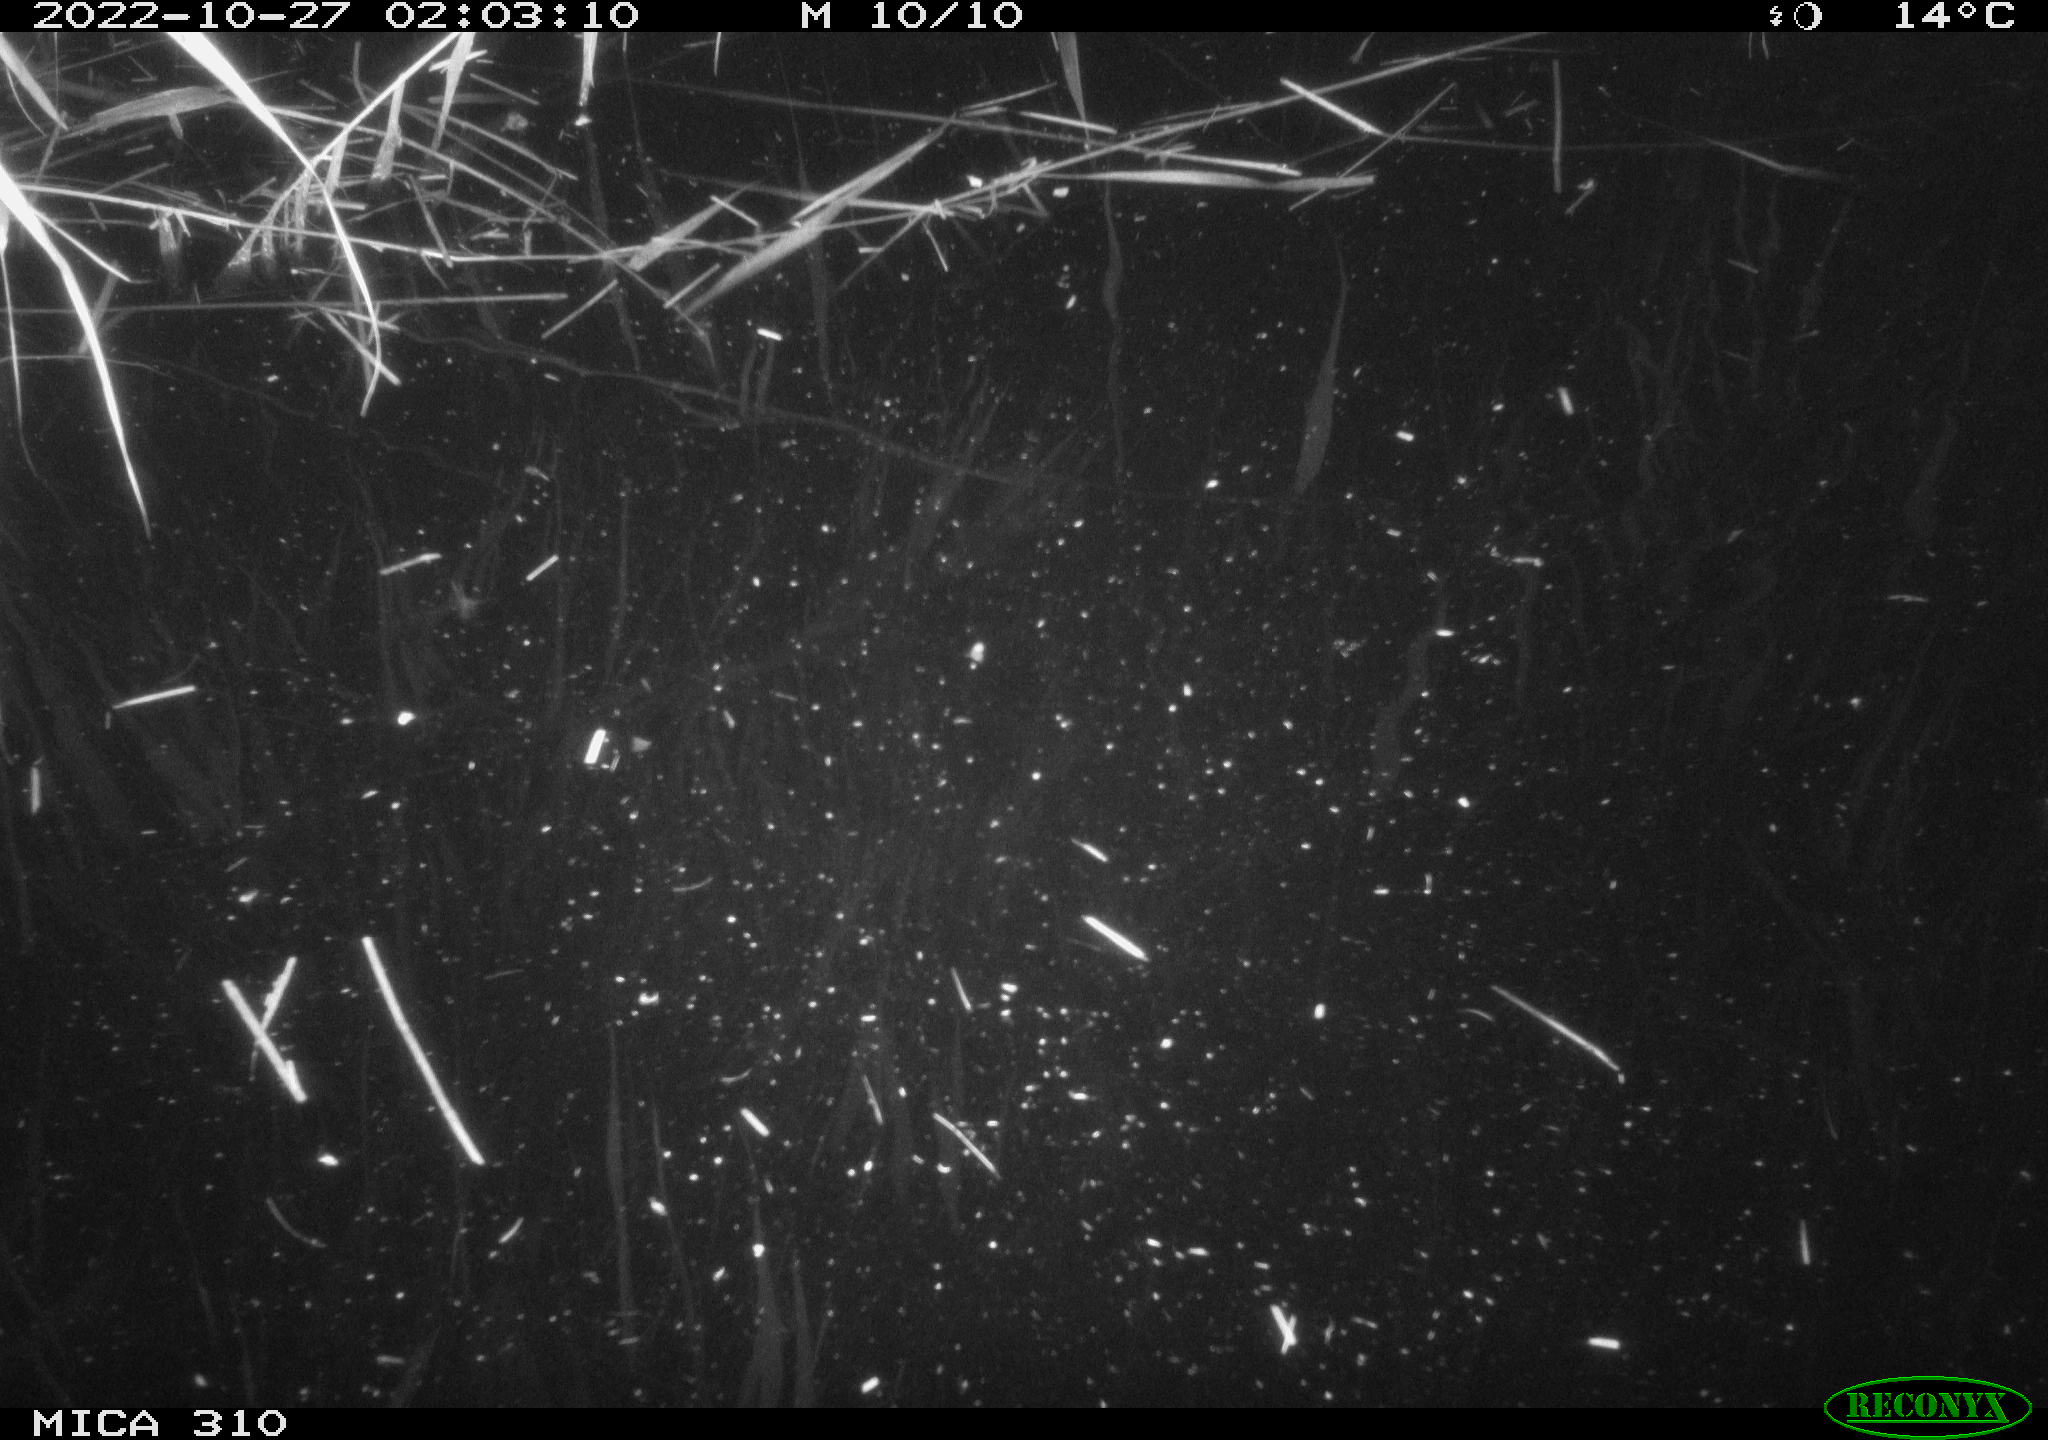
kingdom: Animalia
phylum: Chordata
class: Mammalia
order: Rodentia
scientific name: Rodentia
